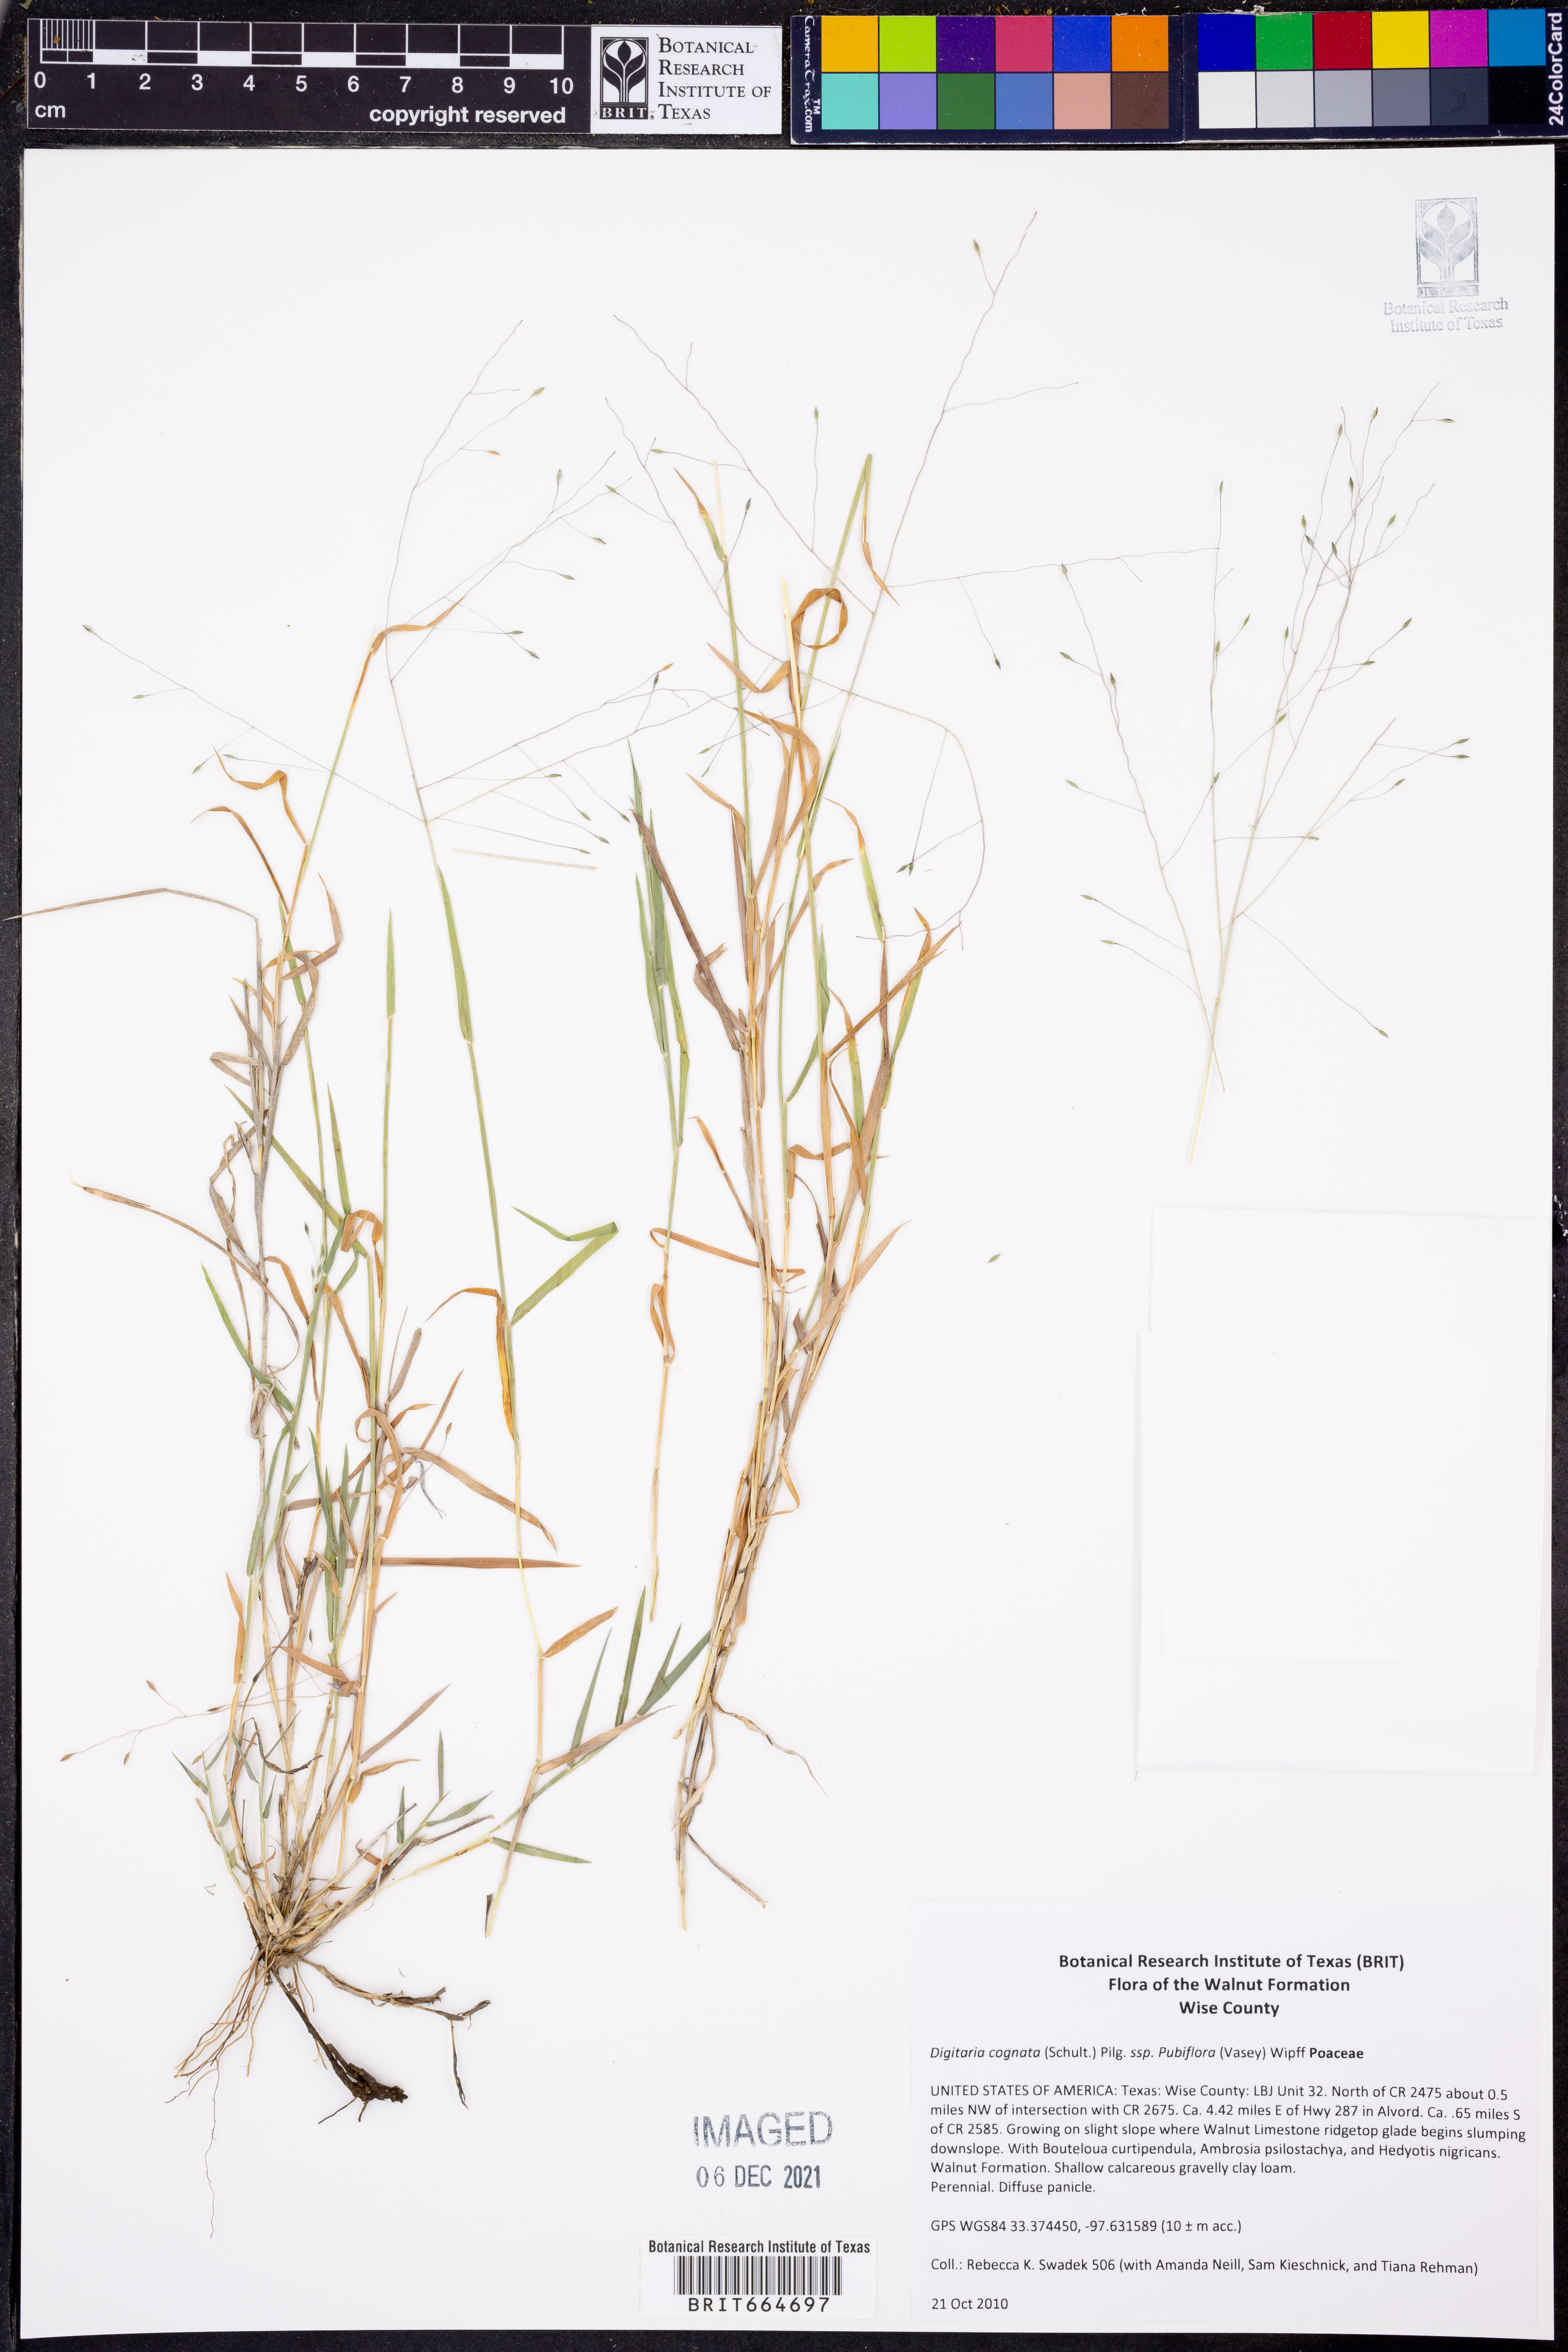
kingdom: Plantae
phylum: Tracheophyta
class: Liliopsida
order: Poales
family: Poaceae
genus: Digitaria
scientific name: Digitaria cognata
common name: Fall witchgrass
